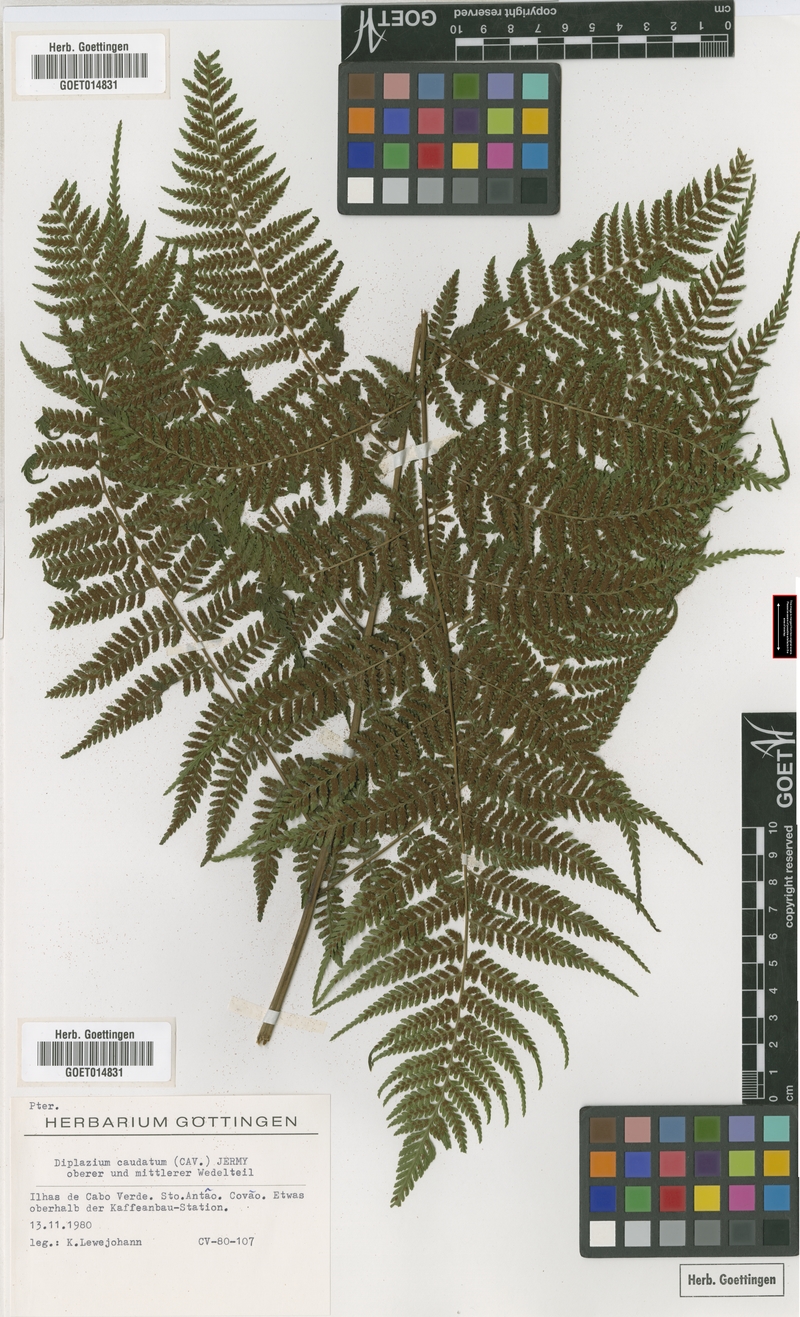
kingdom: Plantae
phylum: Tracheophyta
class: Polypodiopsida
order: Polypodiales
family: Athyriaceae
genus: Diplazium
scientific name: Diplazium caudatum
